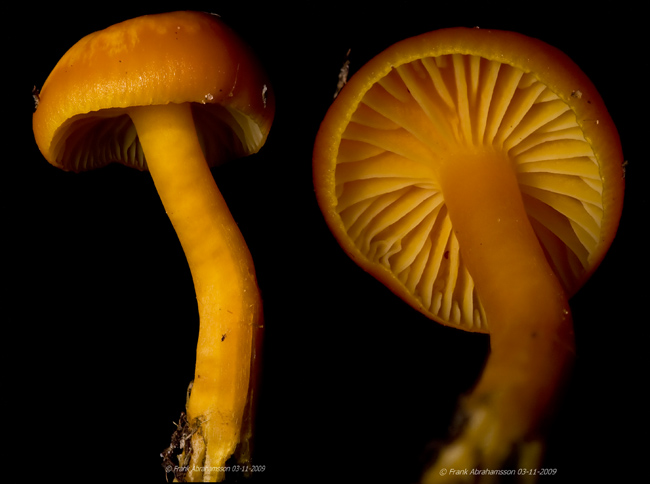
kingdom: Fungi
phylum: Basidiomycota
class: Agaricomycetes
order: Agaricales
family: Hygrophoraceae
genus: Hygrocybe
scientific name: Hygrocybe ceracea
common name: voksgul vokshat
